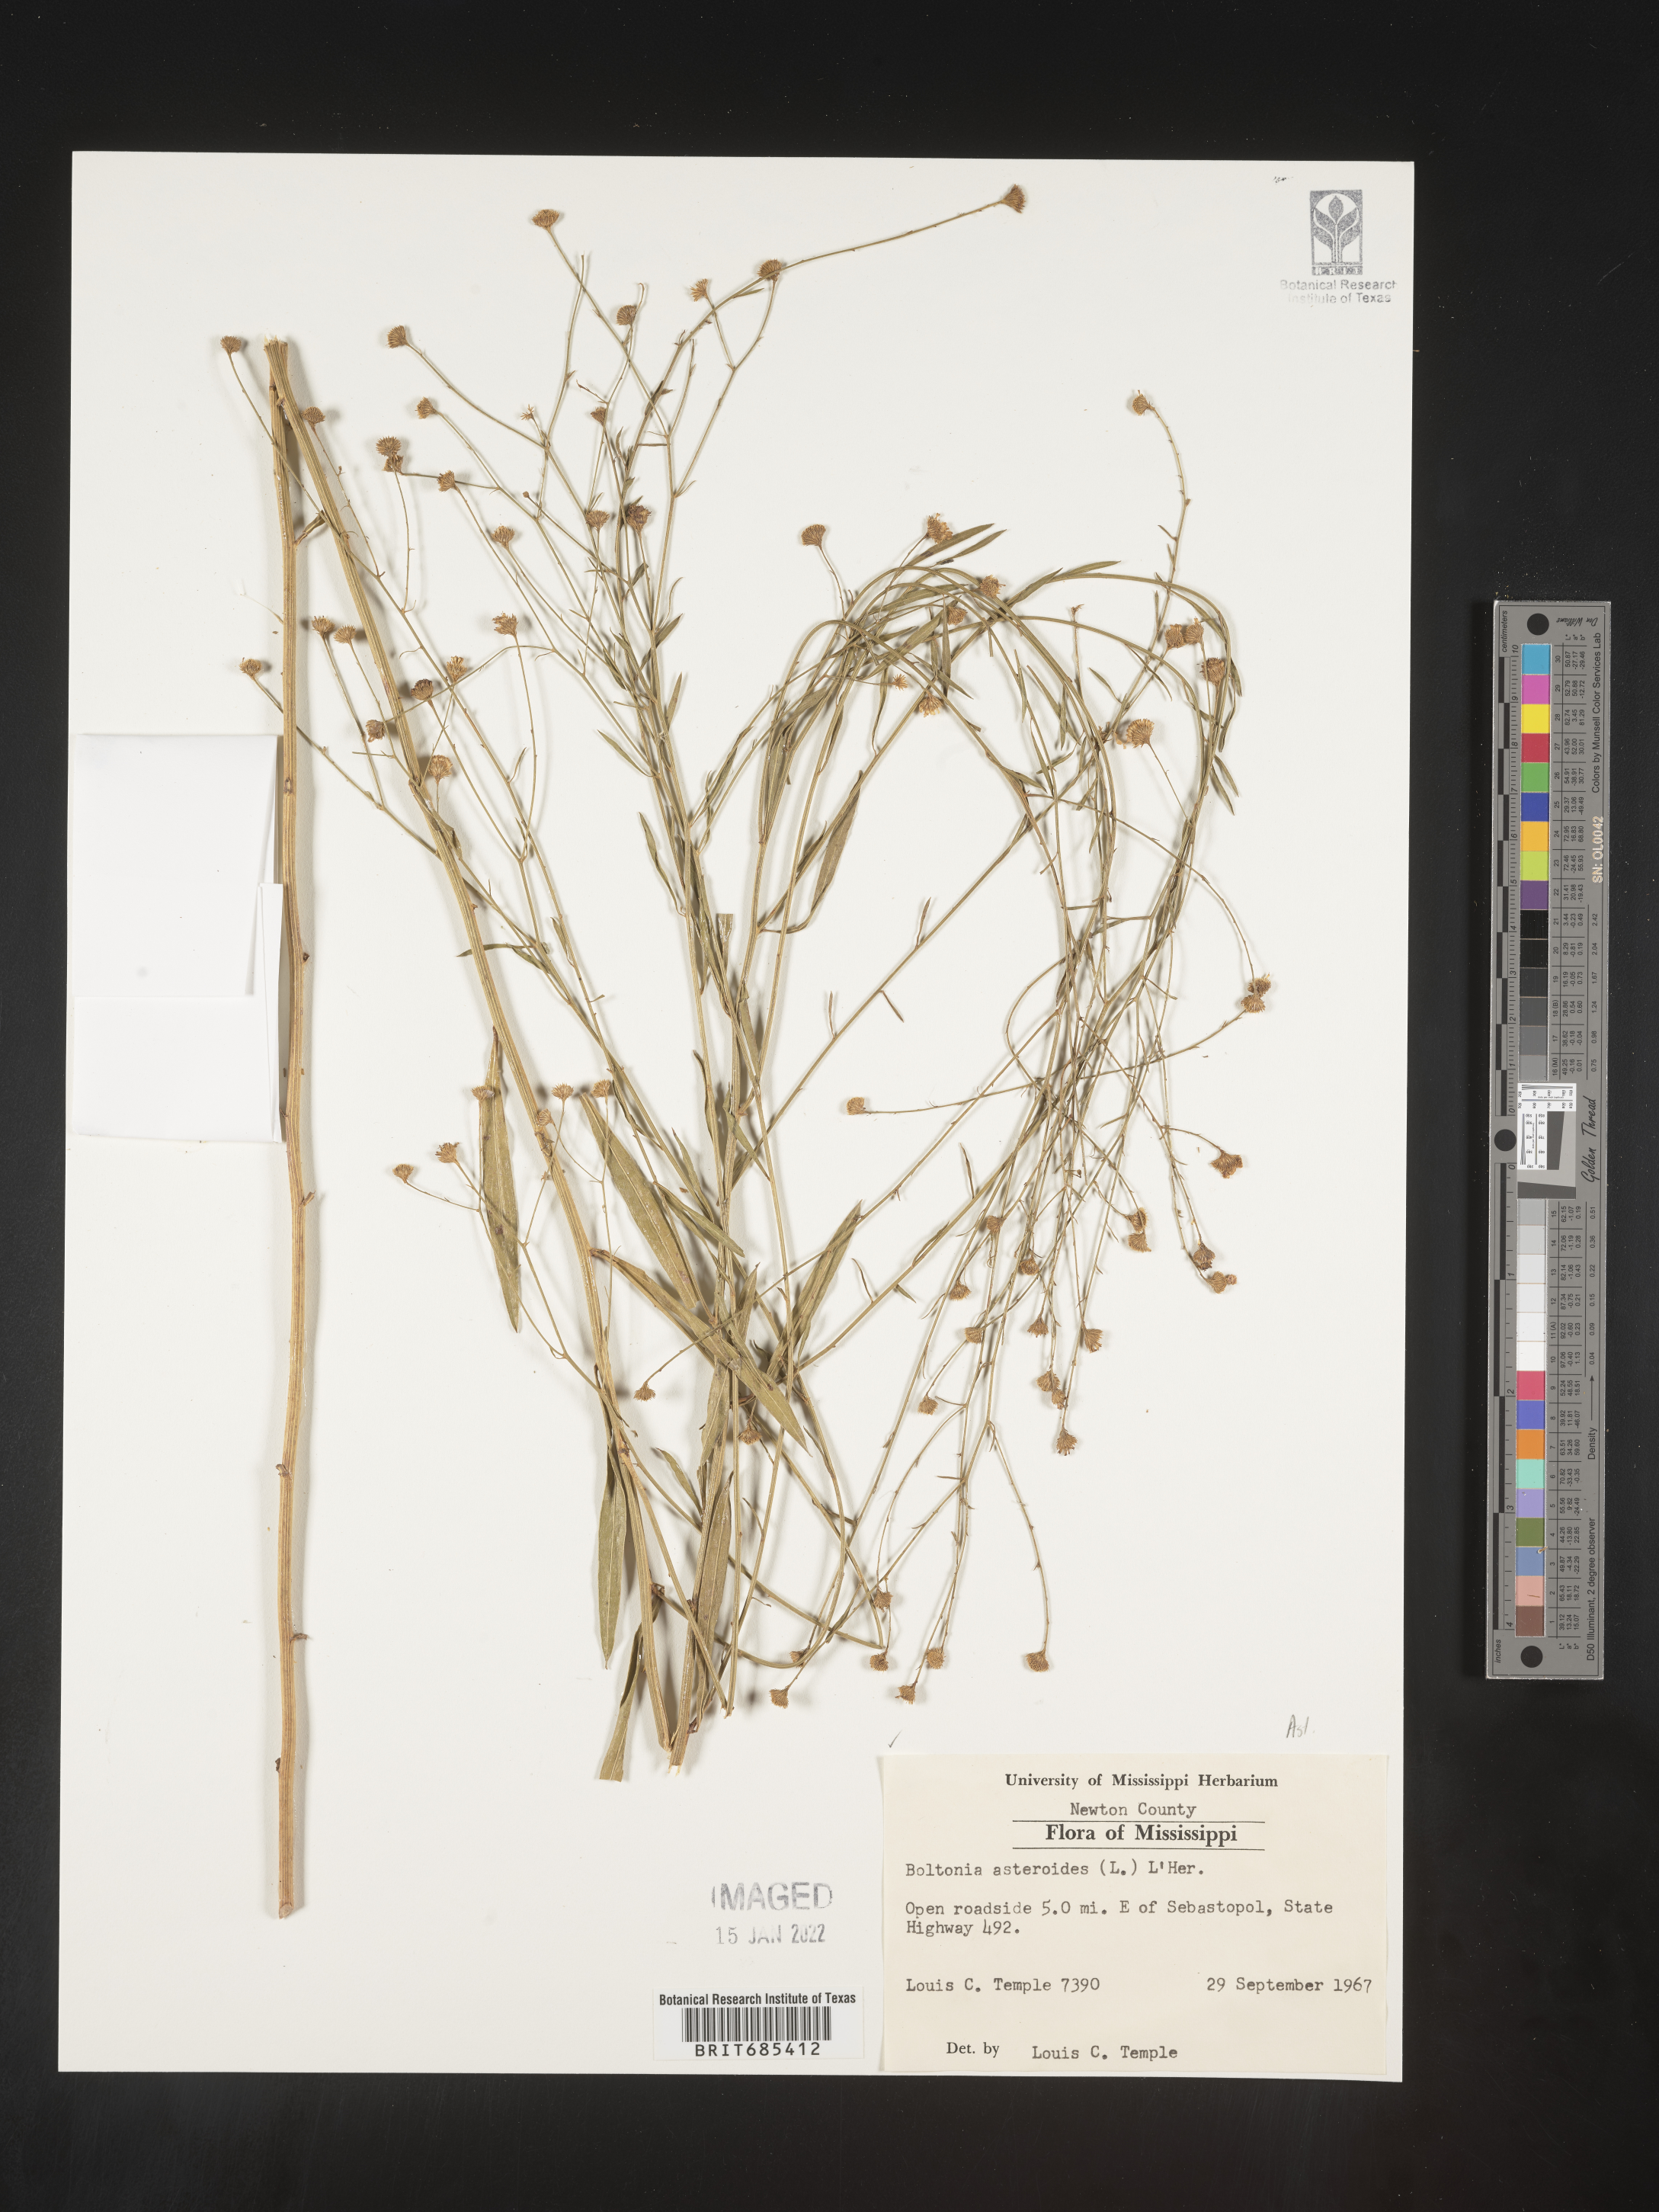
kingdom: Plantae
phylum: Tracheophyta
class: Magnoliopsida
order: Asterales
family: Asteraceae
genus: Boltonia
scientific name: Boltonia asteroides
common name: False chamomile
